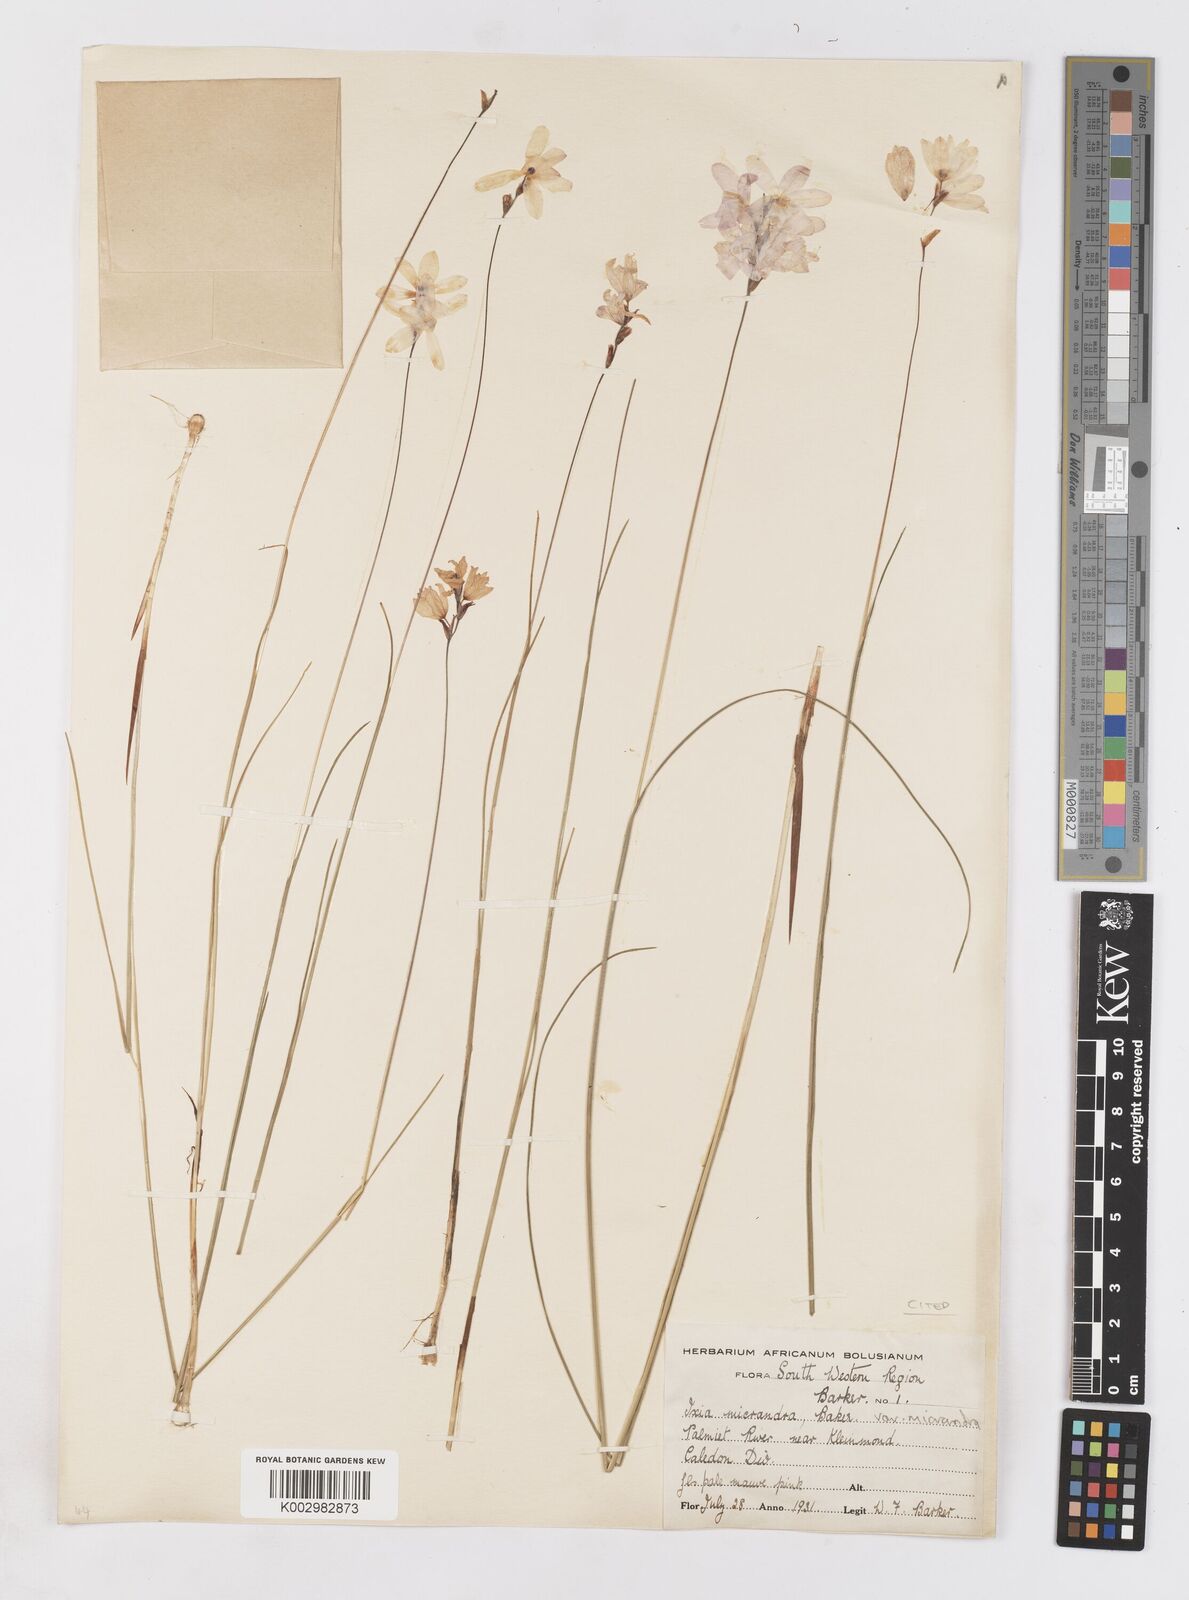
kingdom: Plantae
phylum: Tracheophyta
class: Liliopsida
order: Asparagales
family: Iridaceae
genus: Ixia
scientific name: Ixia micrandra
